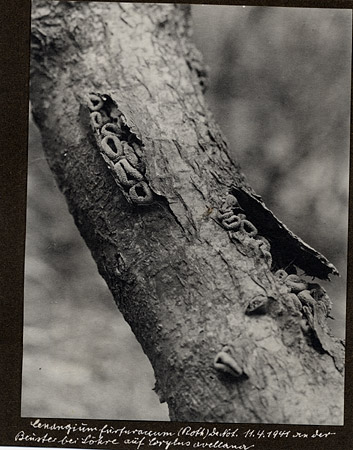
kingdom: Plantae
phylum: Tracheophyta
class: Magnoliopsida
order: Fagales
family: Betulaceae
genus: Corylus
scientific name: Corylus avellana
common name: European hazel
